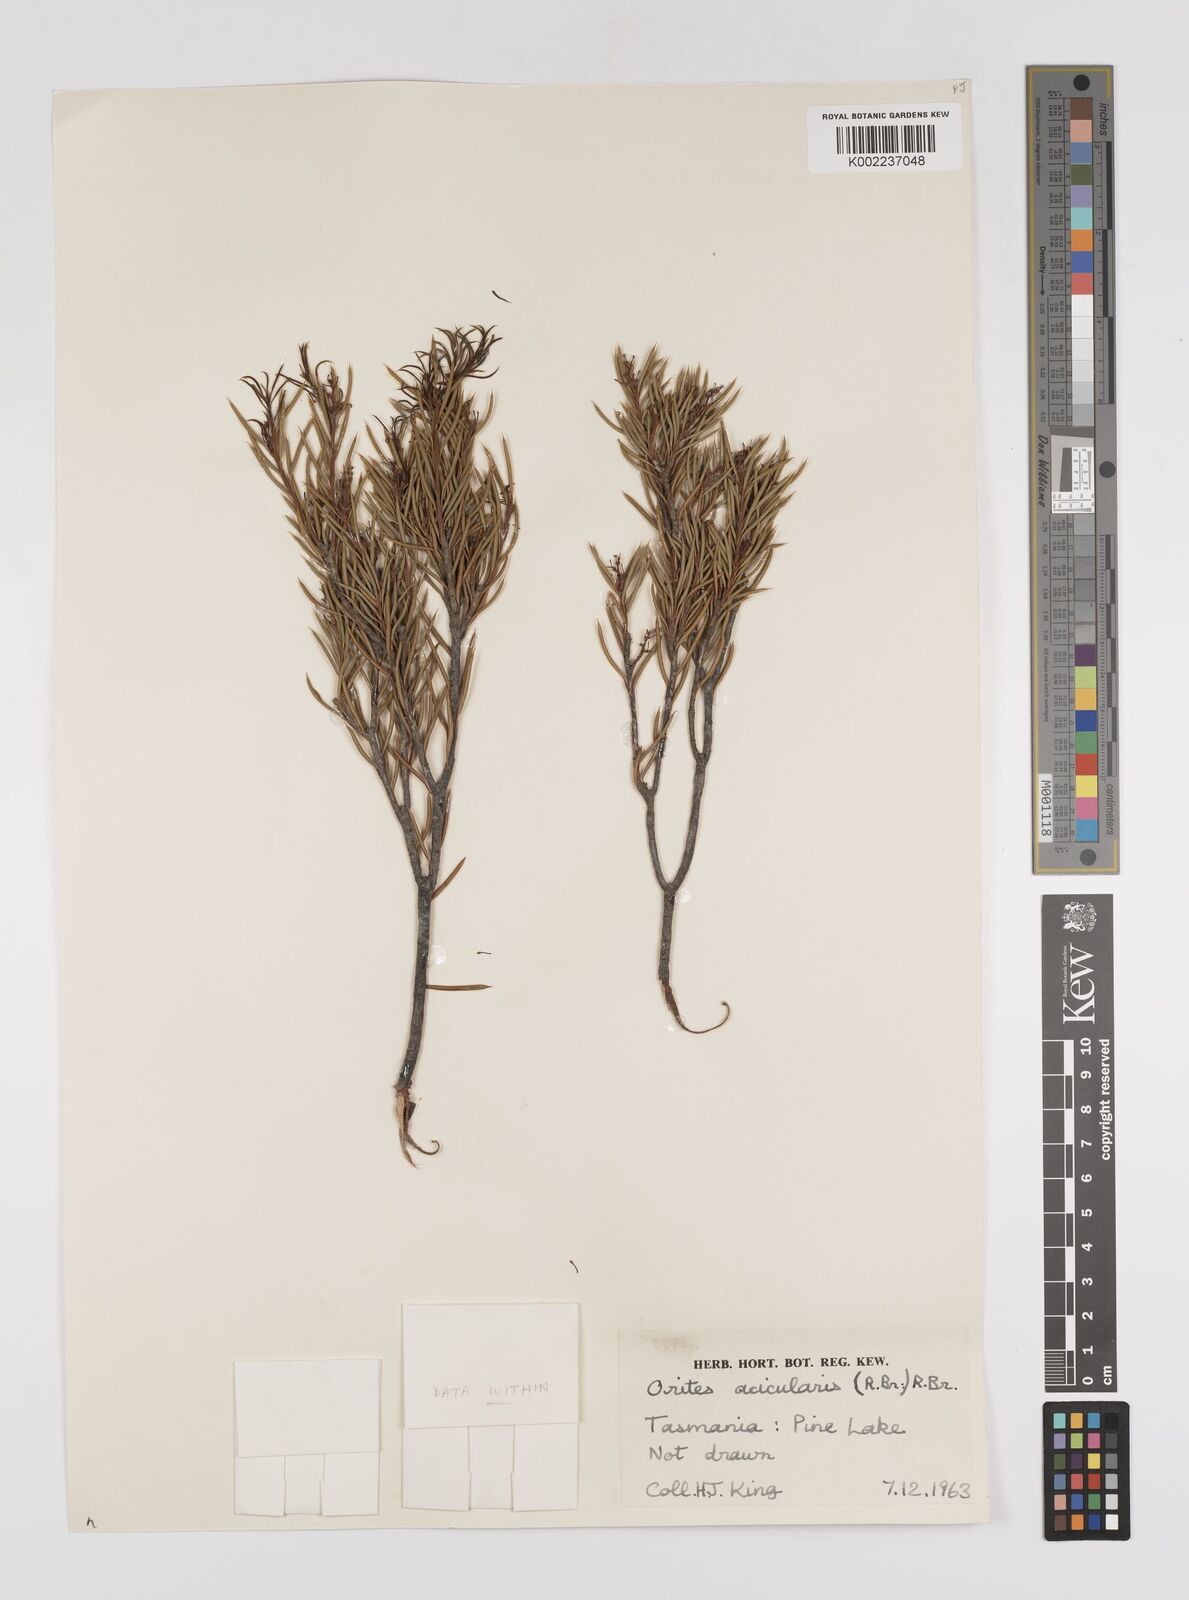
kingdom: Plantae
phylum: Tracheophyta
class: Magnoliopsida
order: Proteales
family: Proteaceae
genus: Orites
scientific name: Orites acicularis
